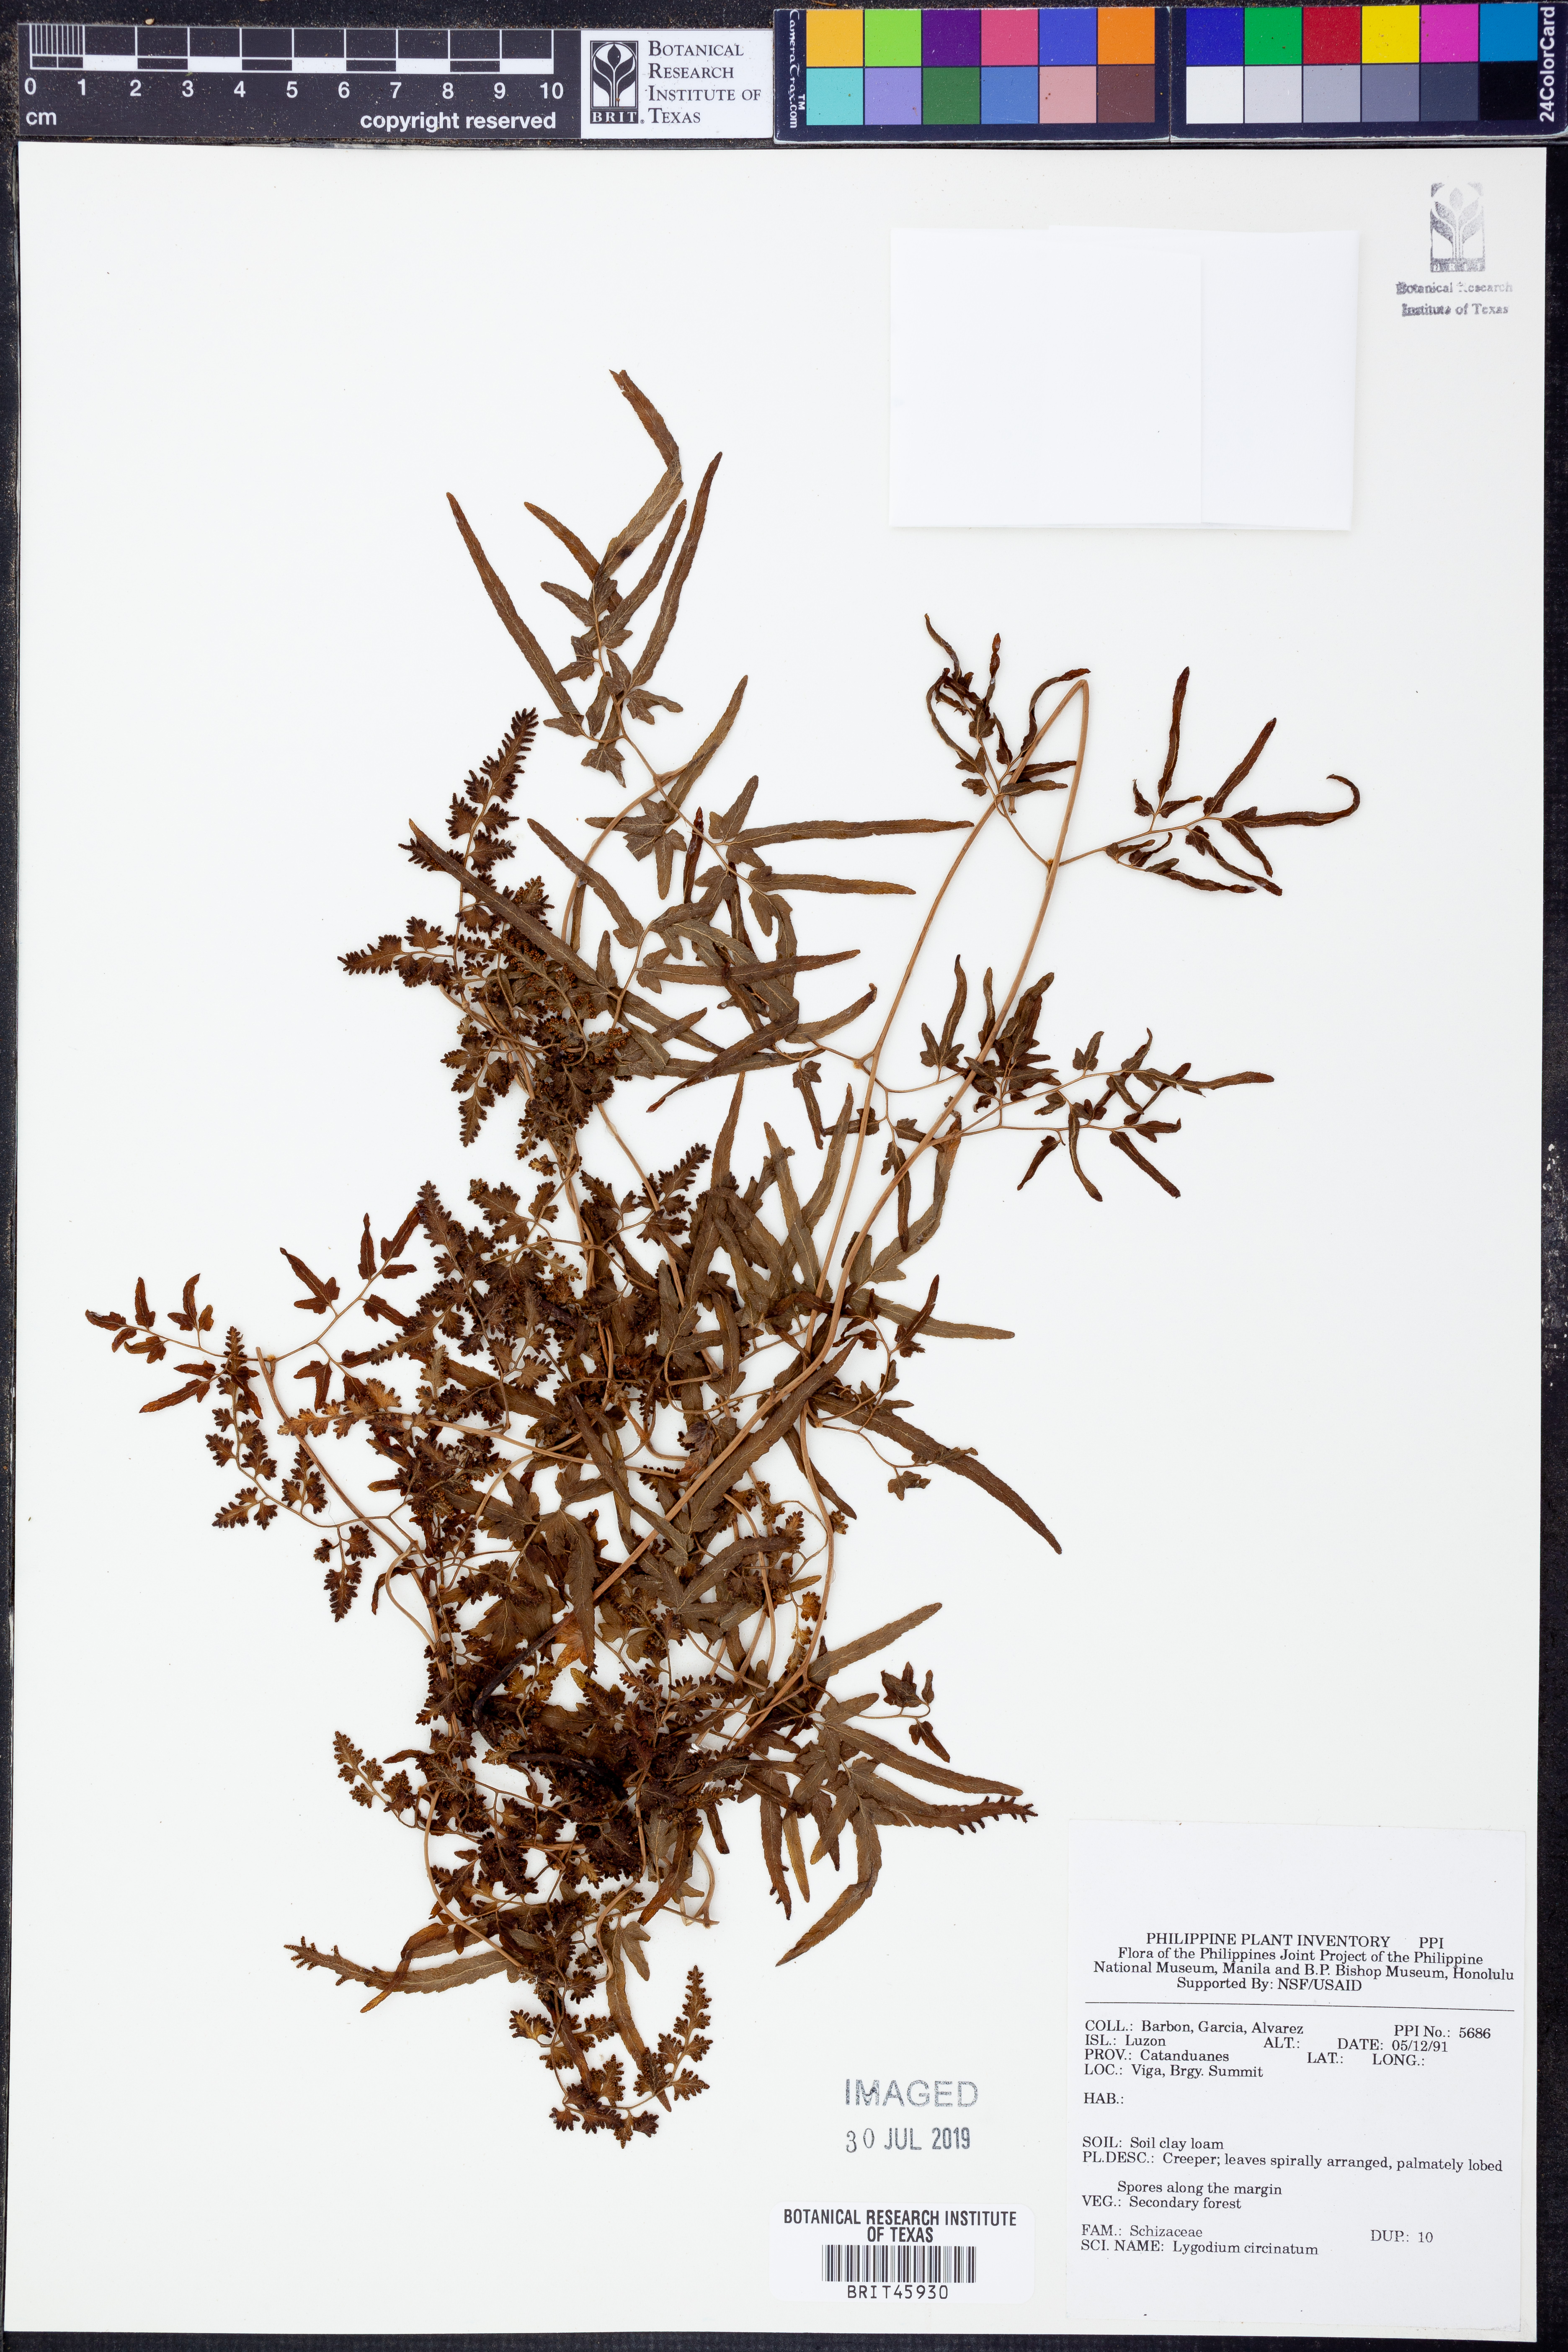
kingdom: Plantae
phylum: Tracheophyta
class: Polypodiopsida
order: Schizaeales
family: Lygodiaceae
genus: Lygodium
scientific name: Lygodium circinnatum
